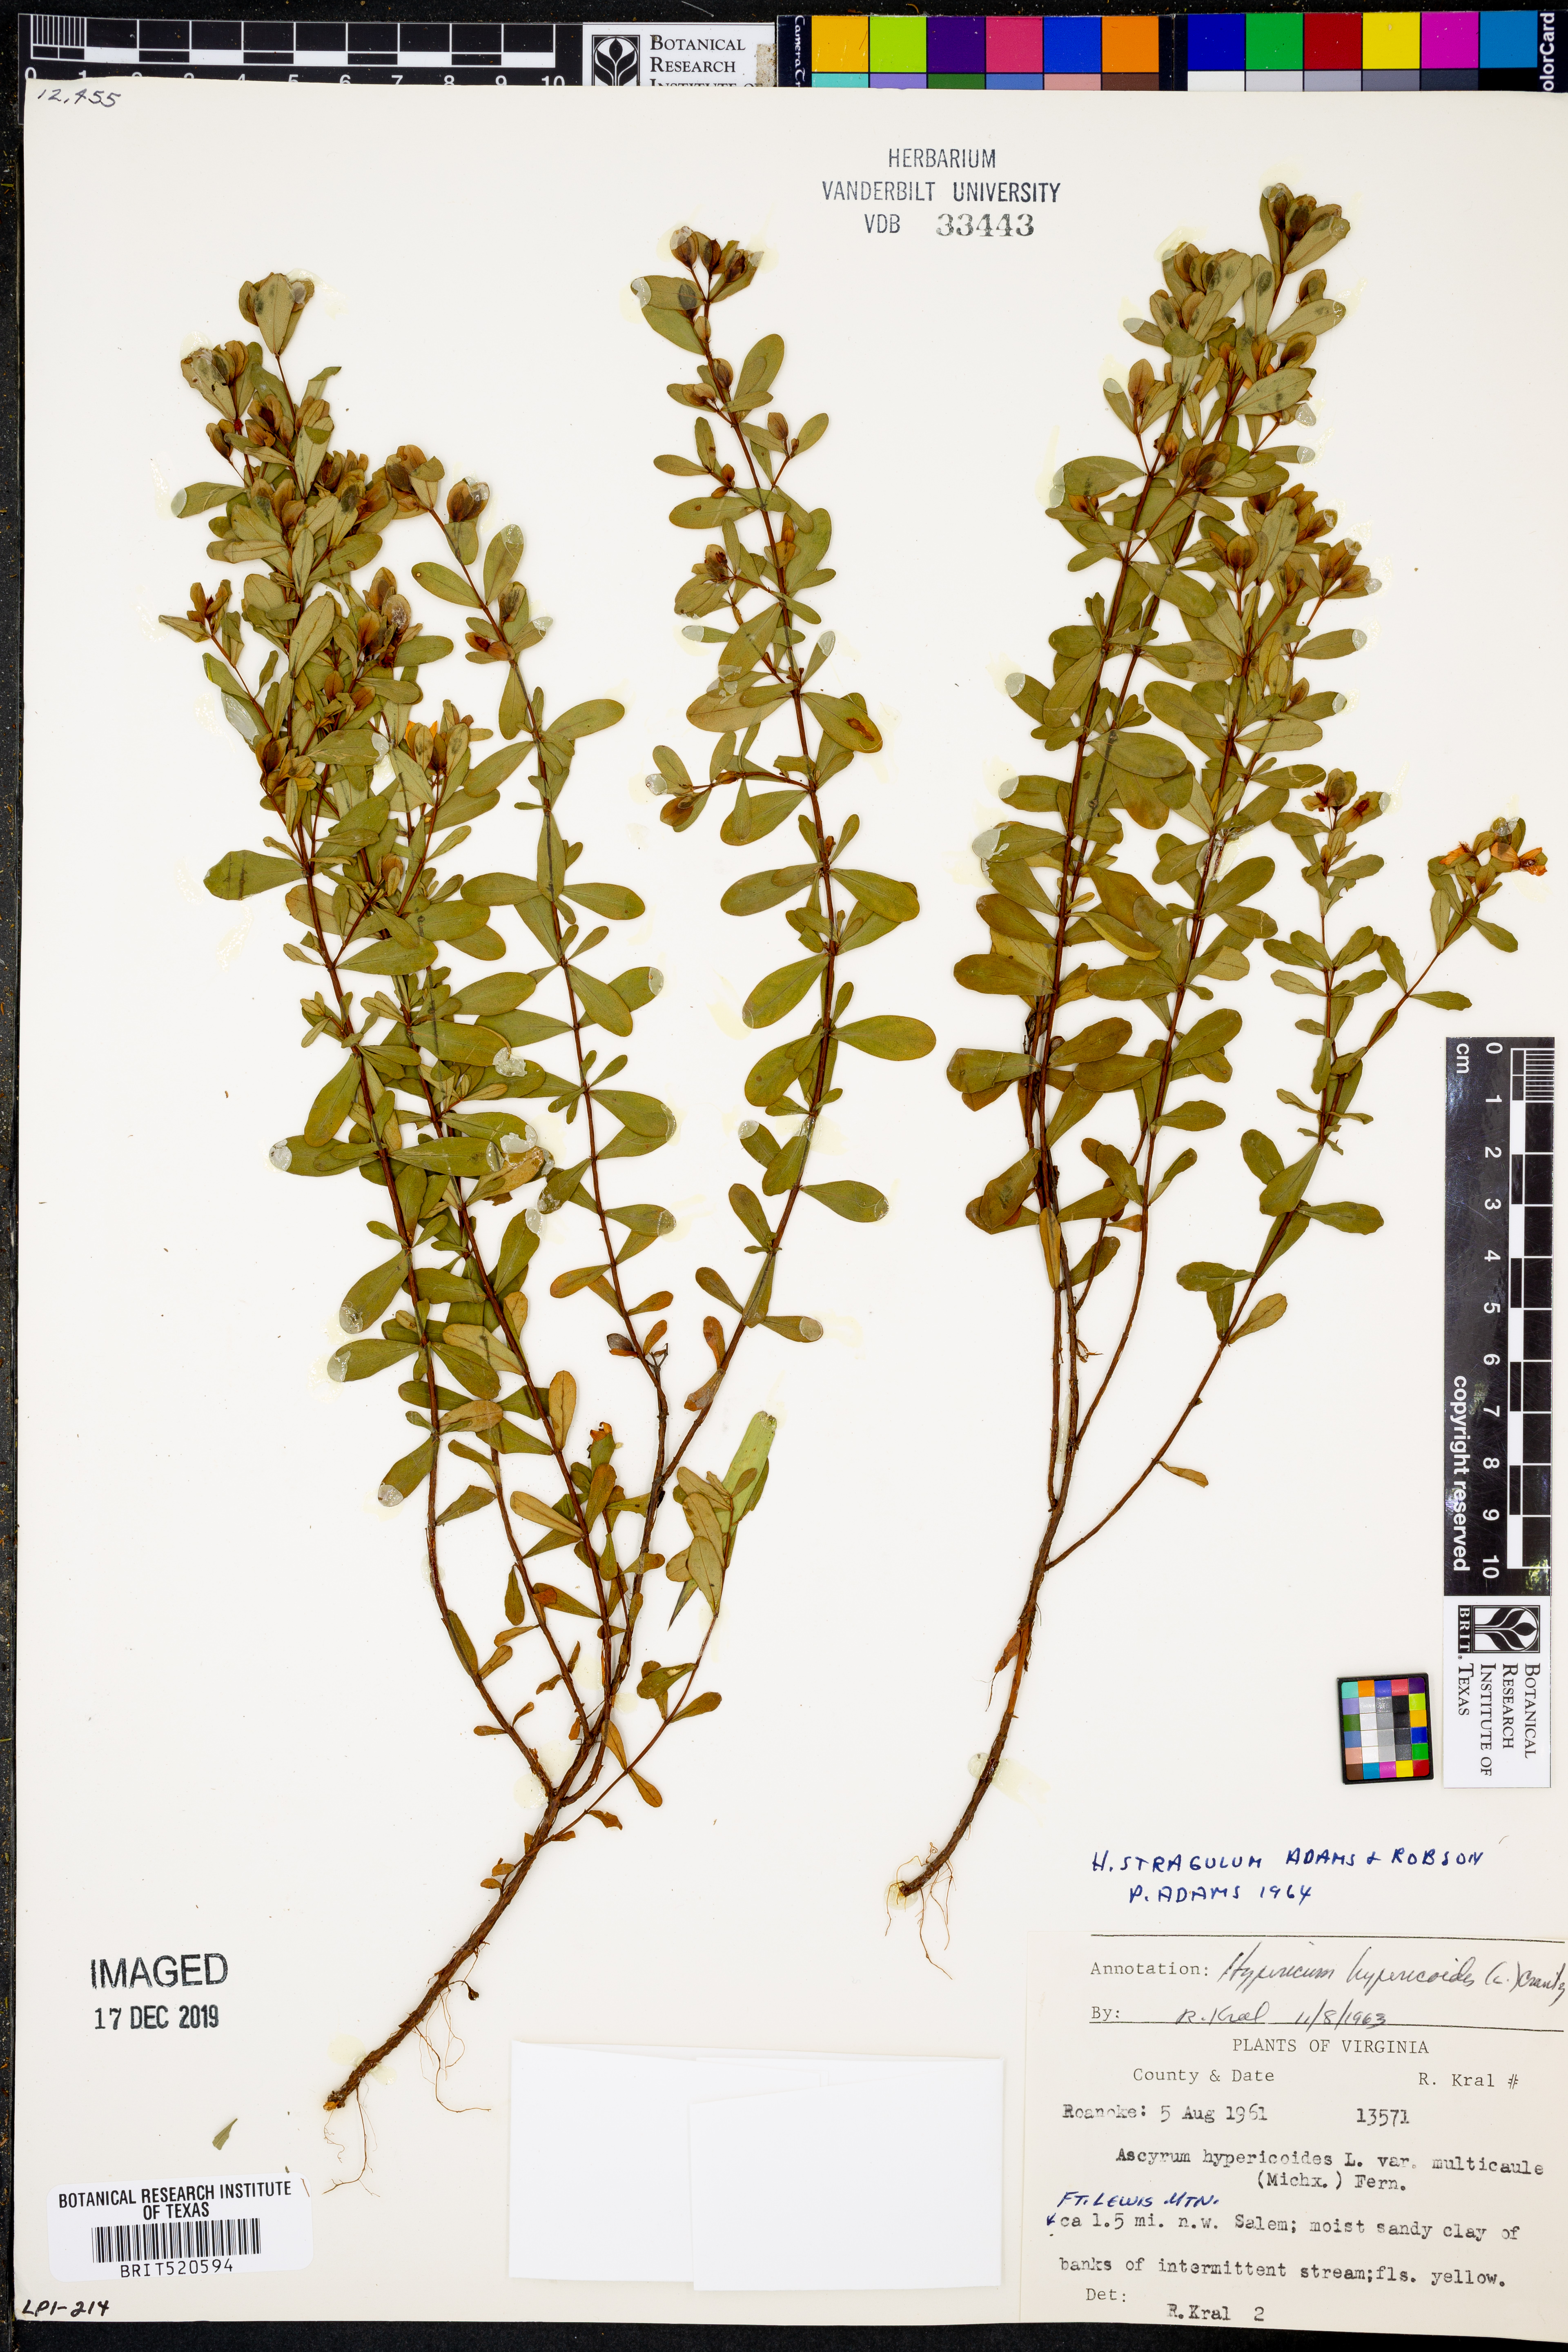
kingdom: Plantae
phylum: Tracheophyta
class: Magnoliopsida
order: Malpighiales
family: Hypericaceae
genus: Hypericum
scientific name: Hypericum hypericoides
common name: St. andrew's cross
